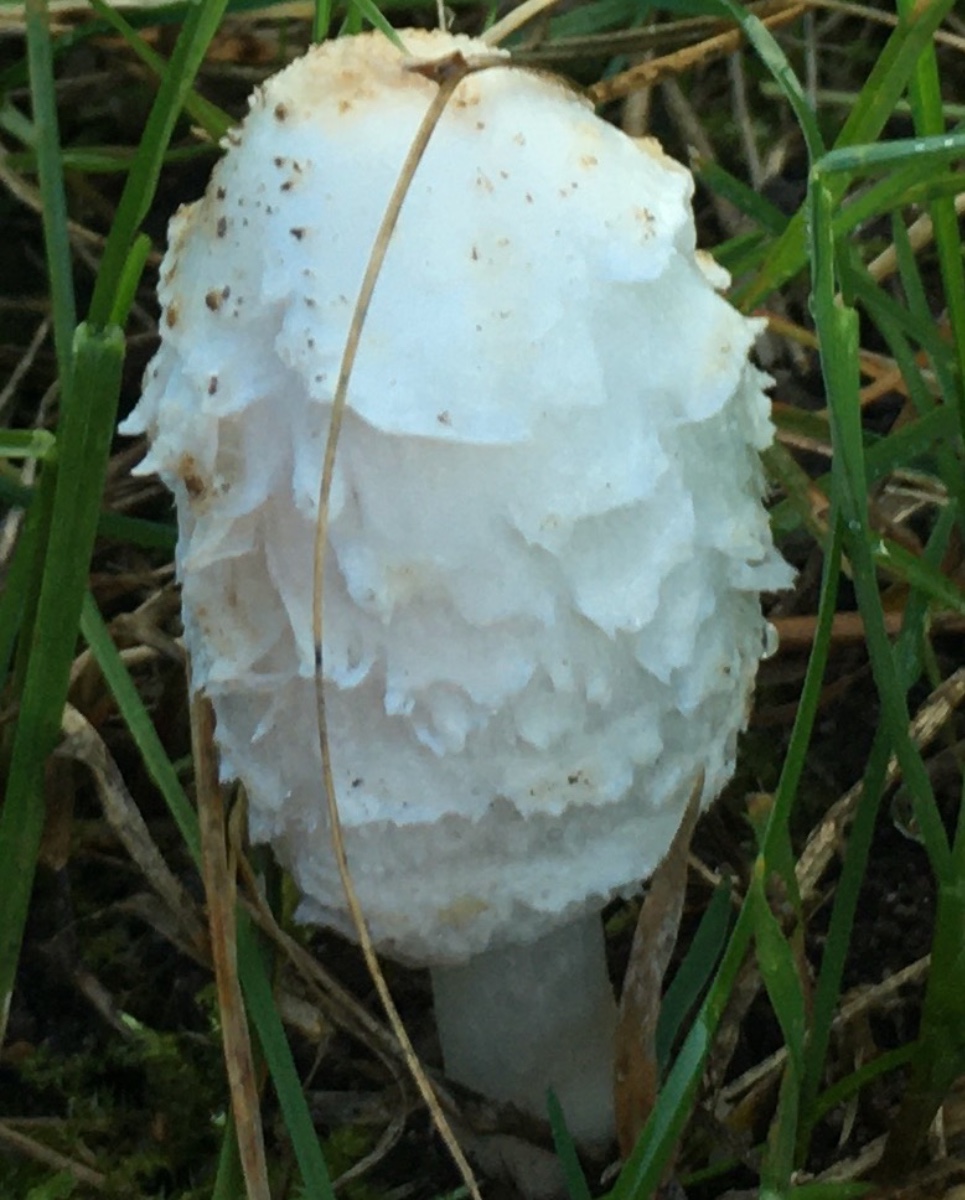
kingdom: Fungi
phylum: Basidiomycota
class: Agaricomycetes
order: Agaricales
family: Agaricaceae
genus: Coprinus
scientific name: Coprinus comatus
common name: stor parykhat
